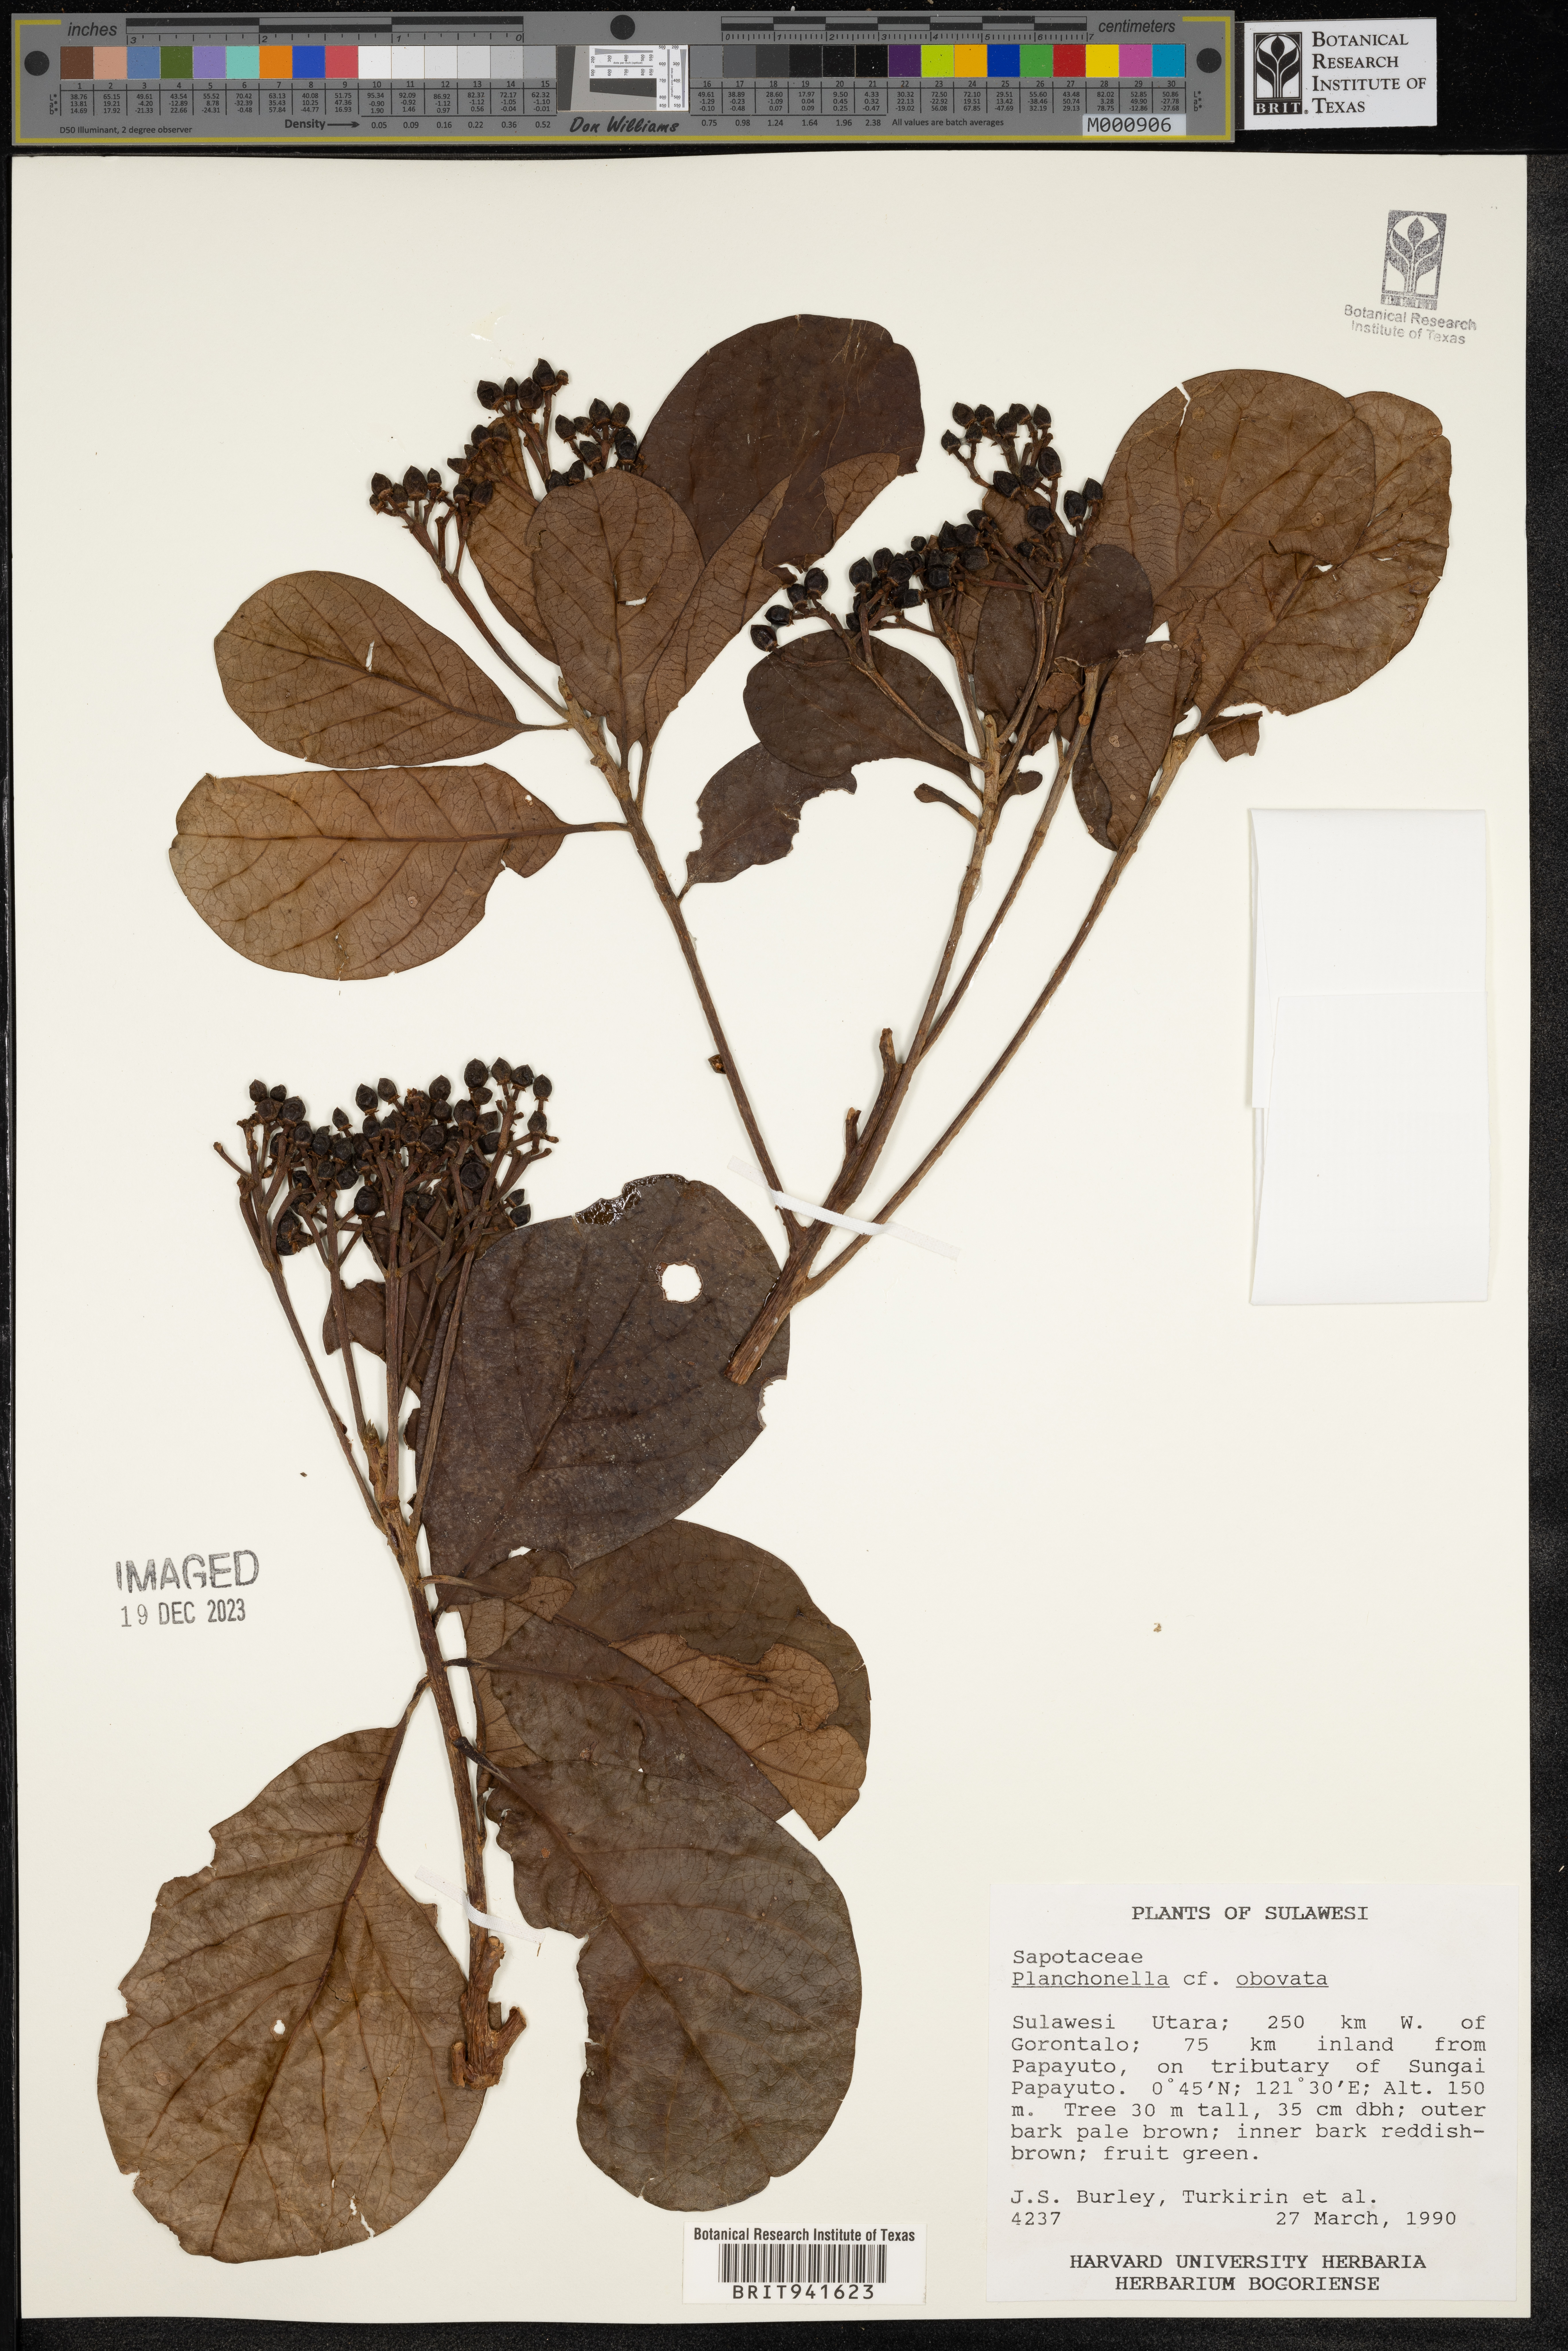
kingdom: Plantae
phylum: Tracheophyta
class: Magnoliopsida
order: Ericales
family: Sapotaceae
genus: Planchonella
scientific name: Planchonella
